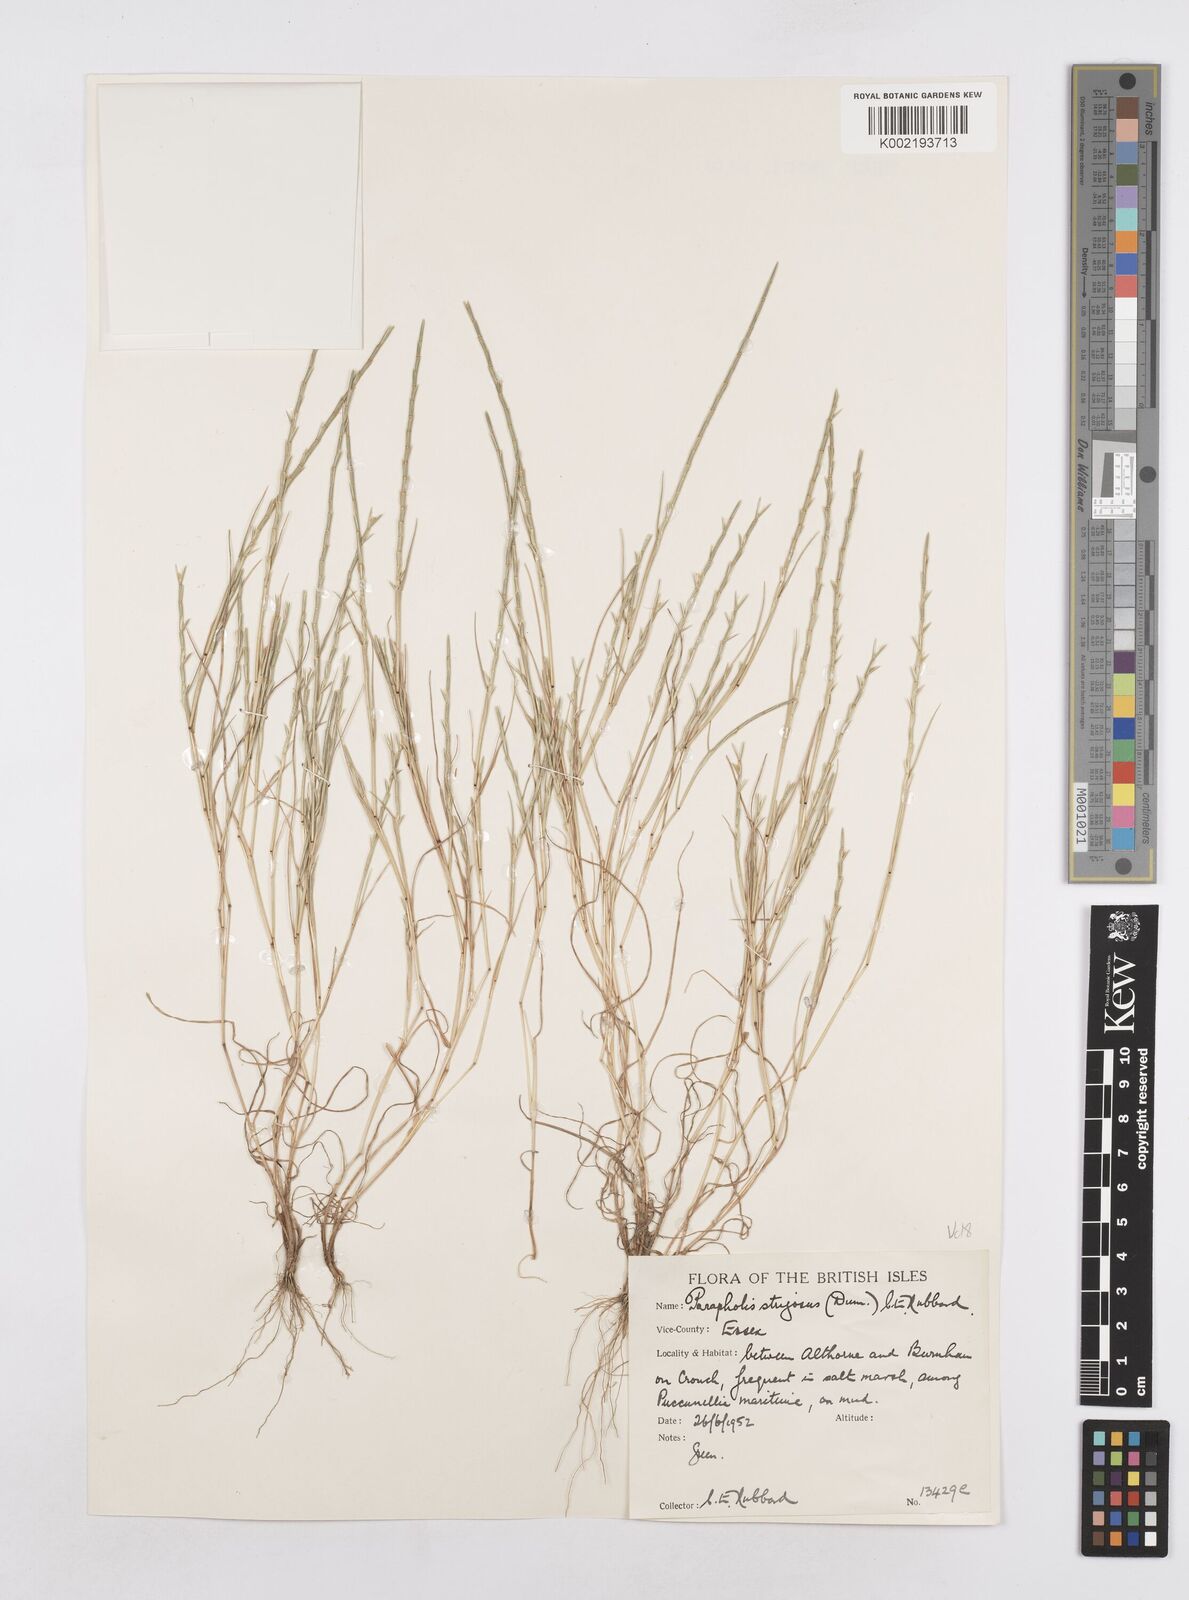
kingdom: Plantae
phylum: Tracheophyta
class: Liliopsida
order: Poales
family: Poaceae
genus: Parapholis
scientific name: Parapholis strigosa
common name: Hard-grass
